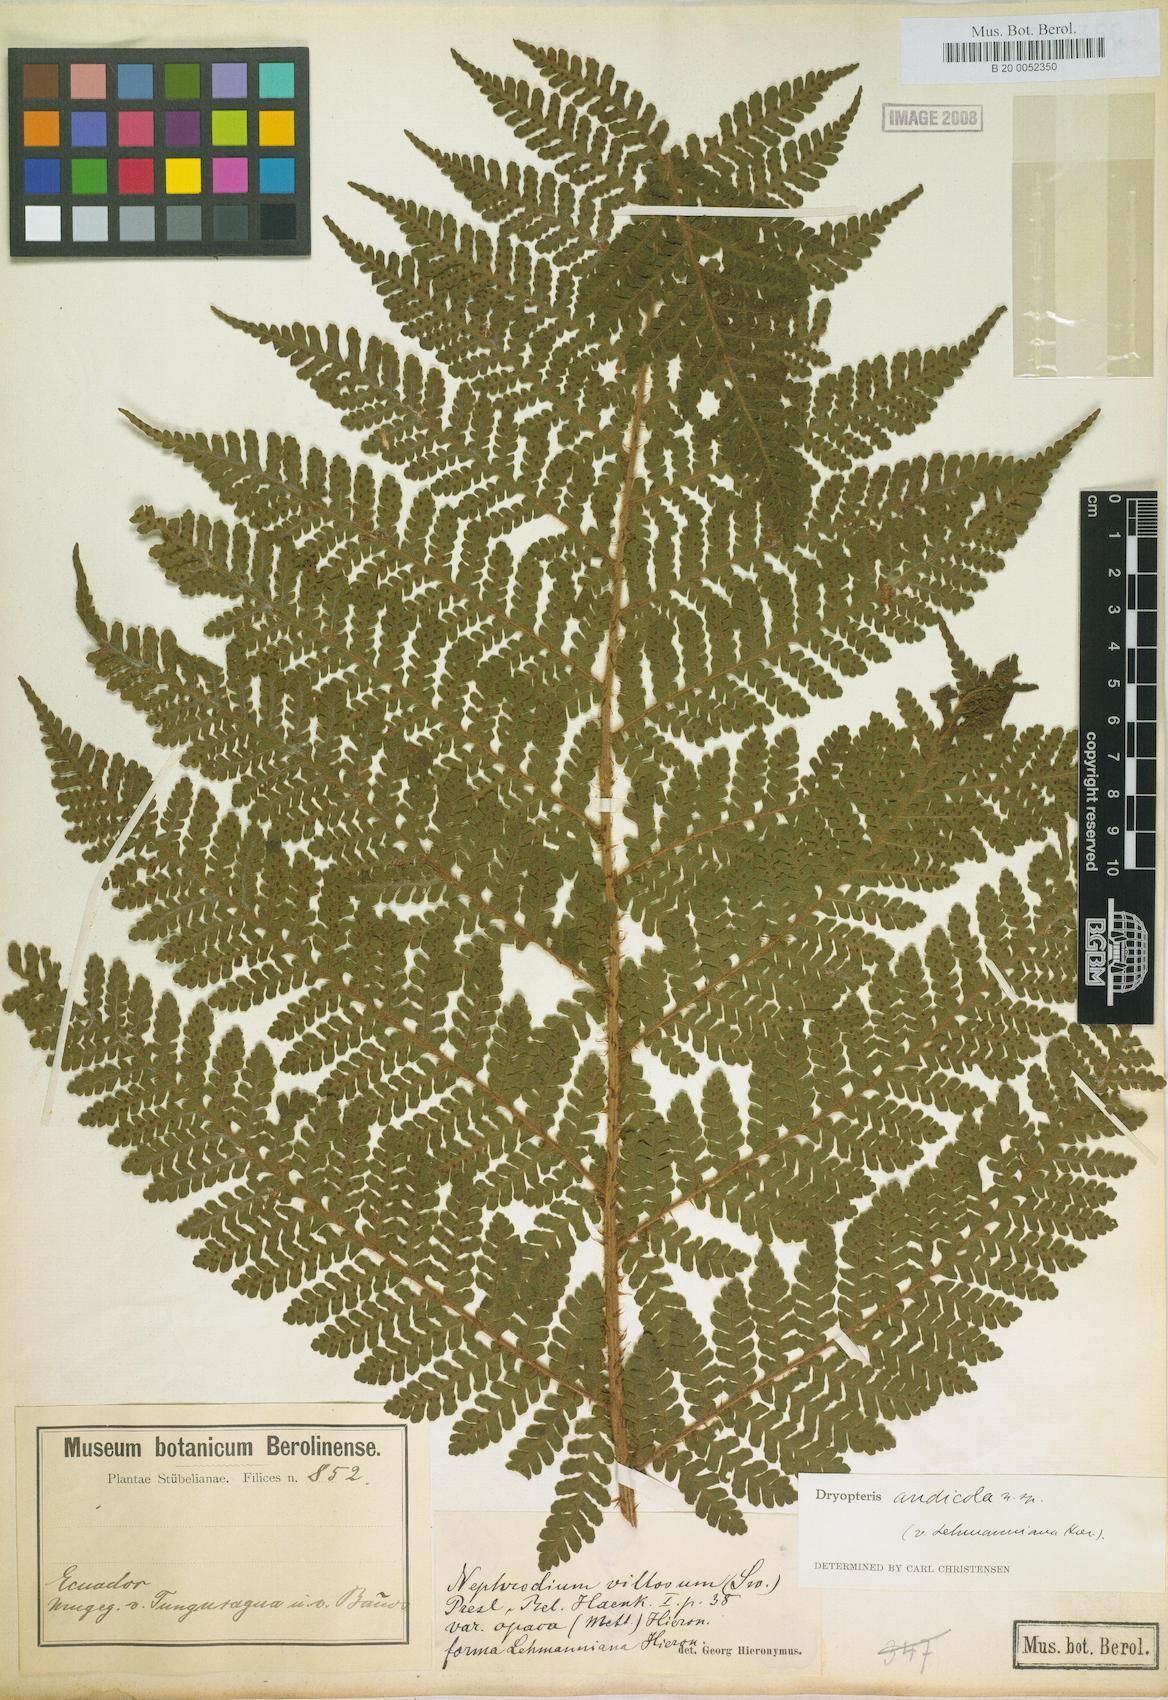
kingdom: Plantae
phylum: Tracheophyta
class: Polypodiopsida
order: Polypodiales
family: Dryopteridaceae
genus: Megalastrum
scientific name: Megalastrum insigne
